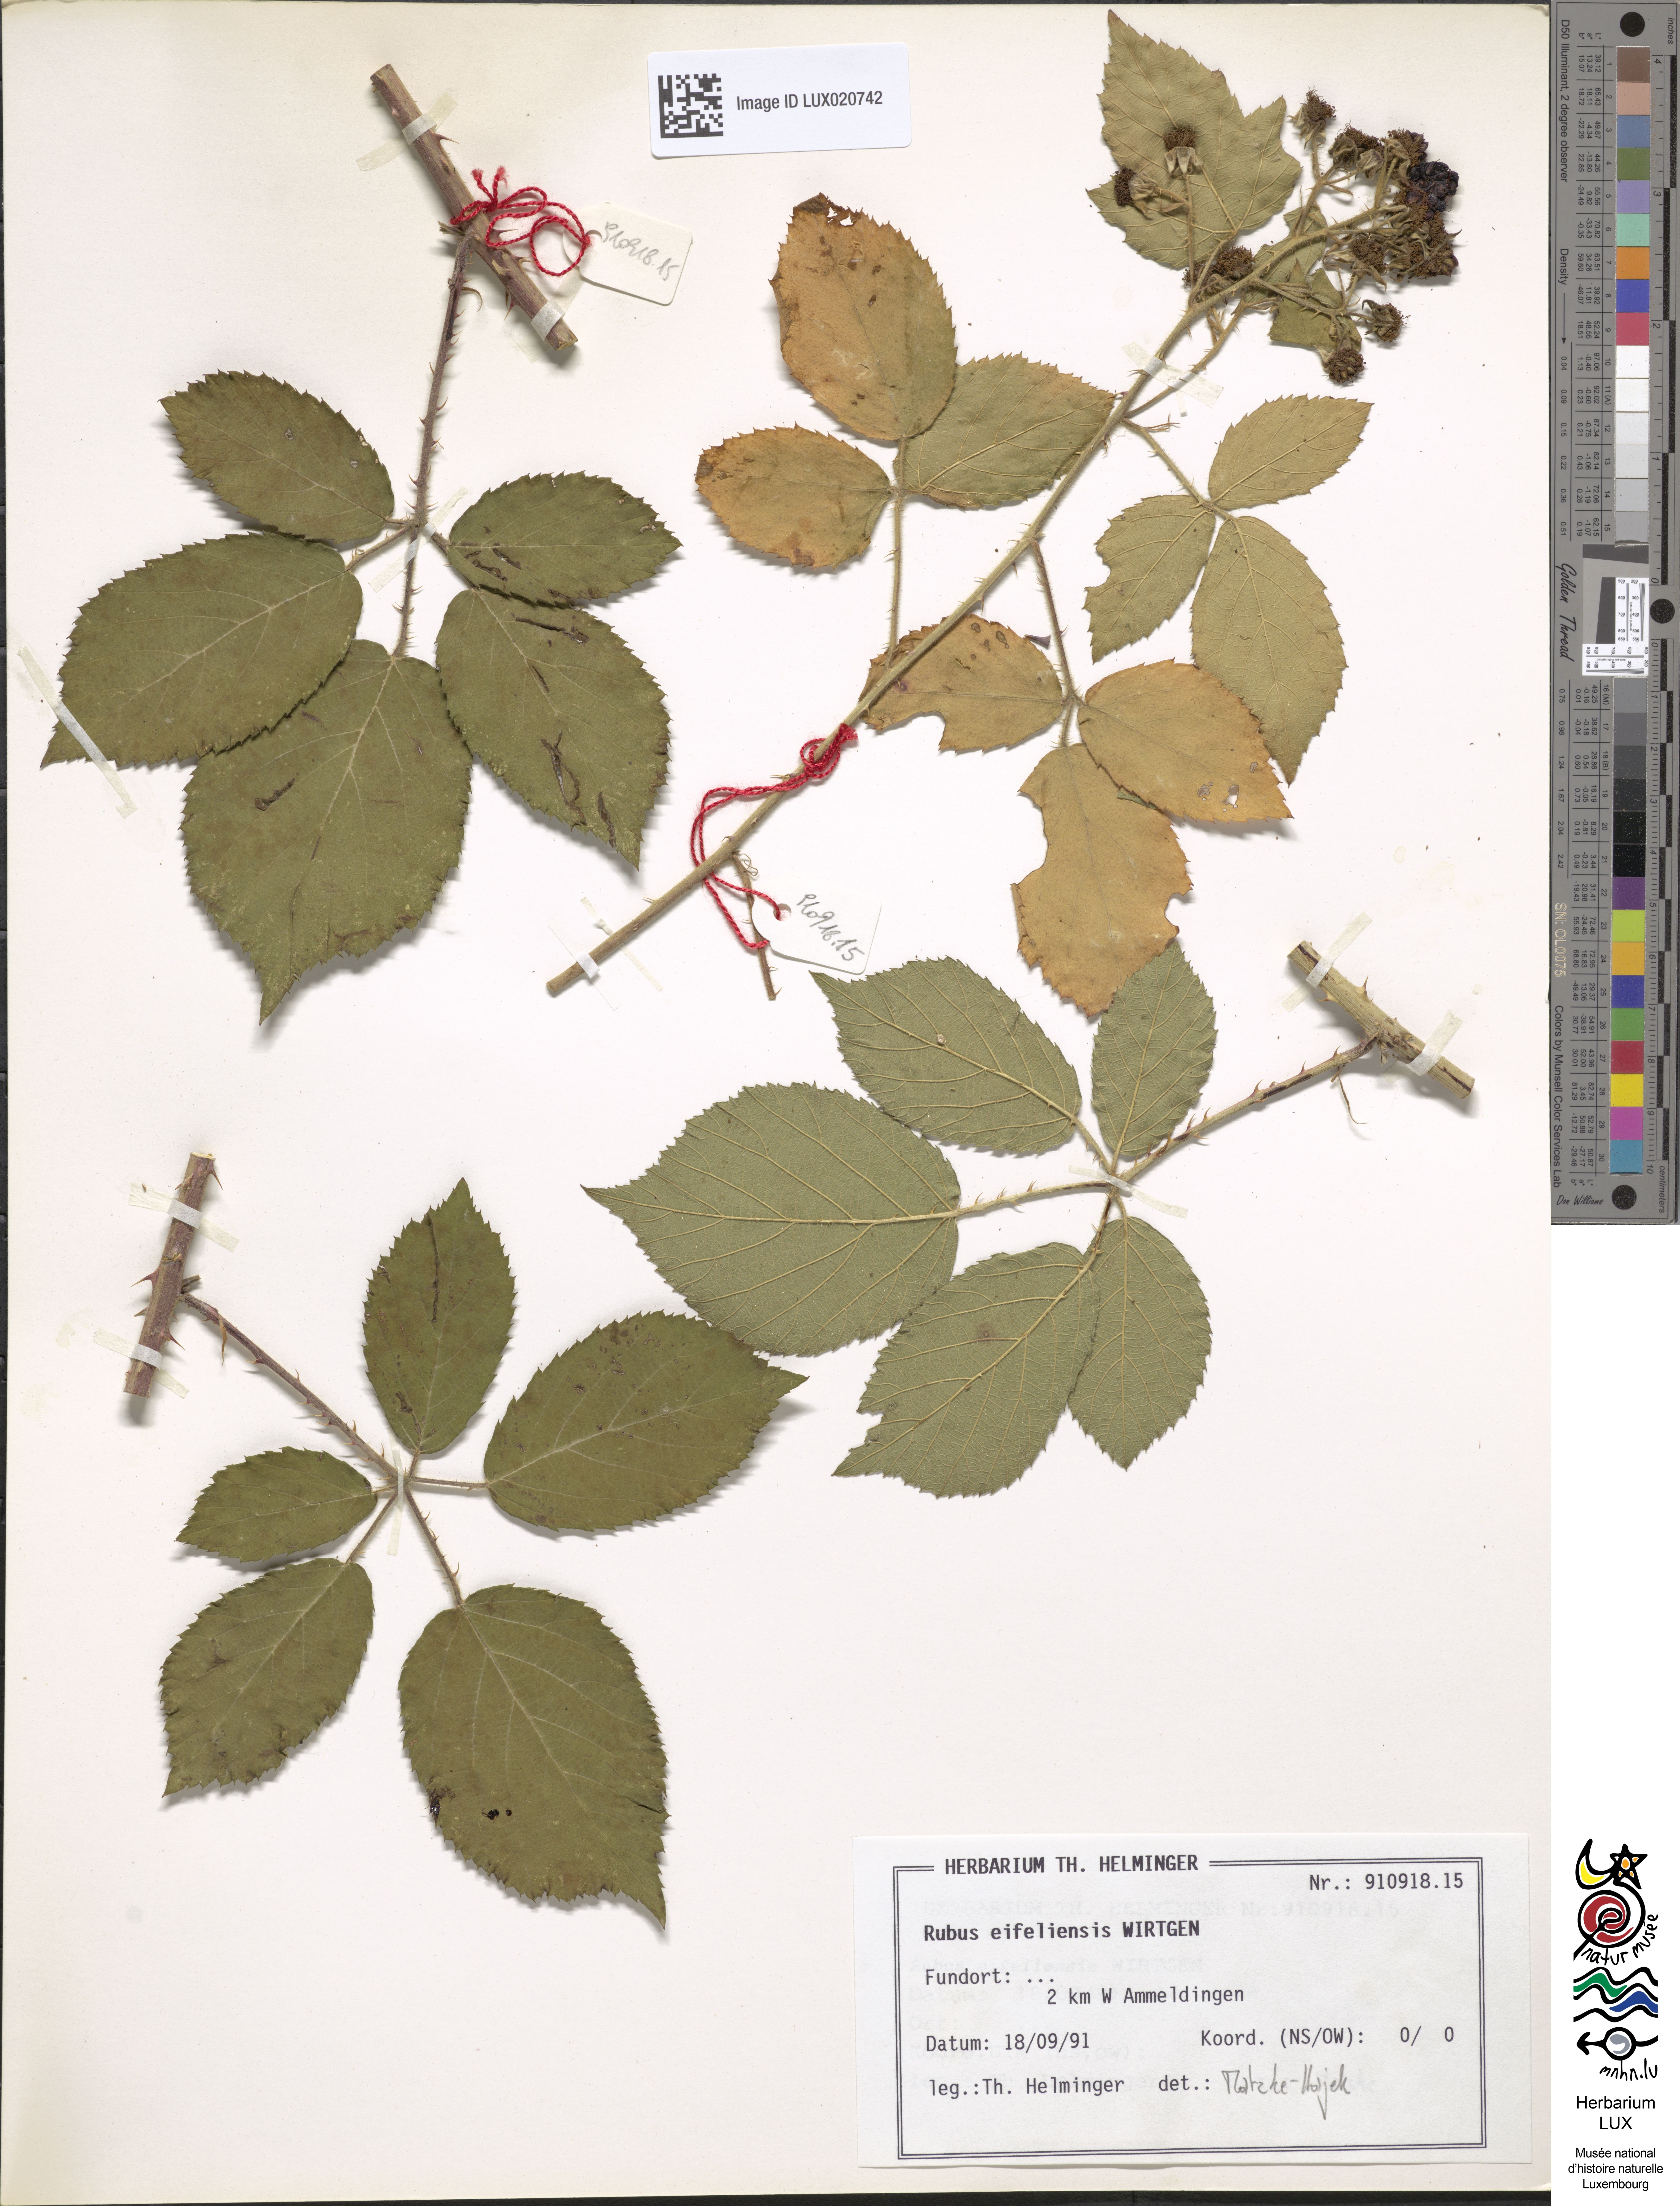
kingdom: Plantae
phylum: Tracheophyta
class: Magnoliopsida
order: Rosales
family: Rosaceae
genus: Rubus
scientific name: Rubus eifeliensis
